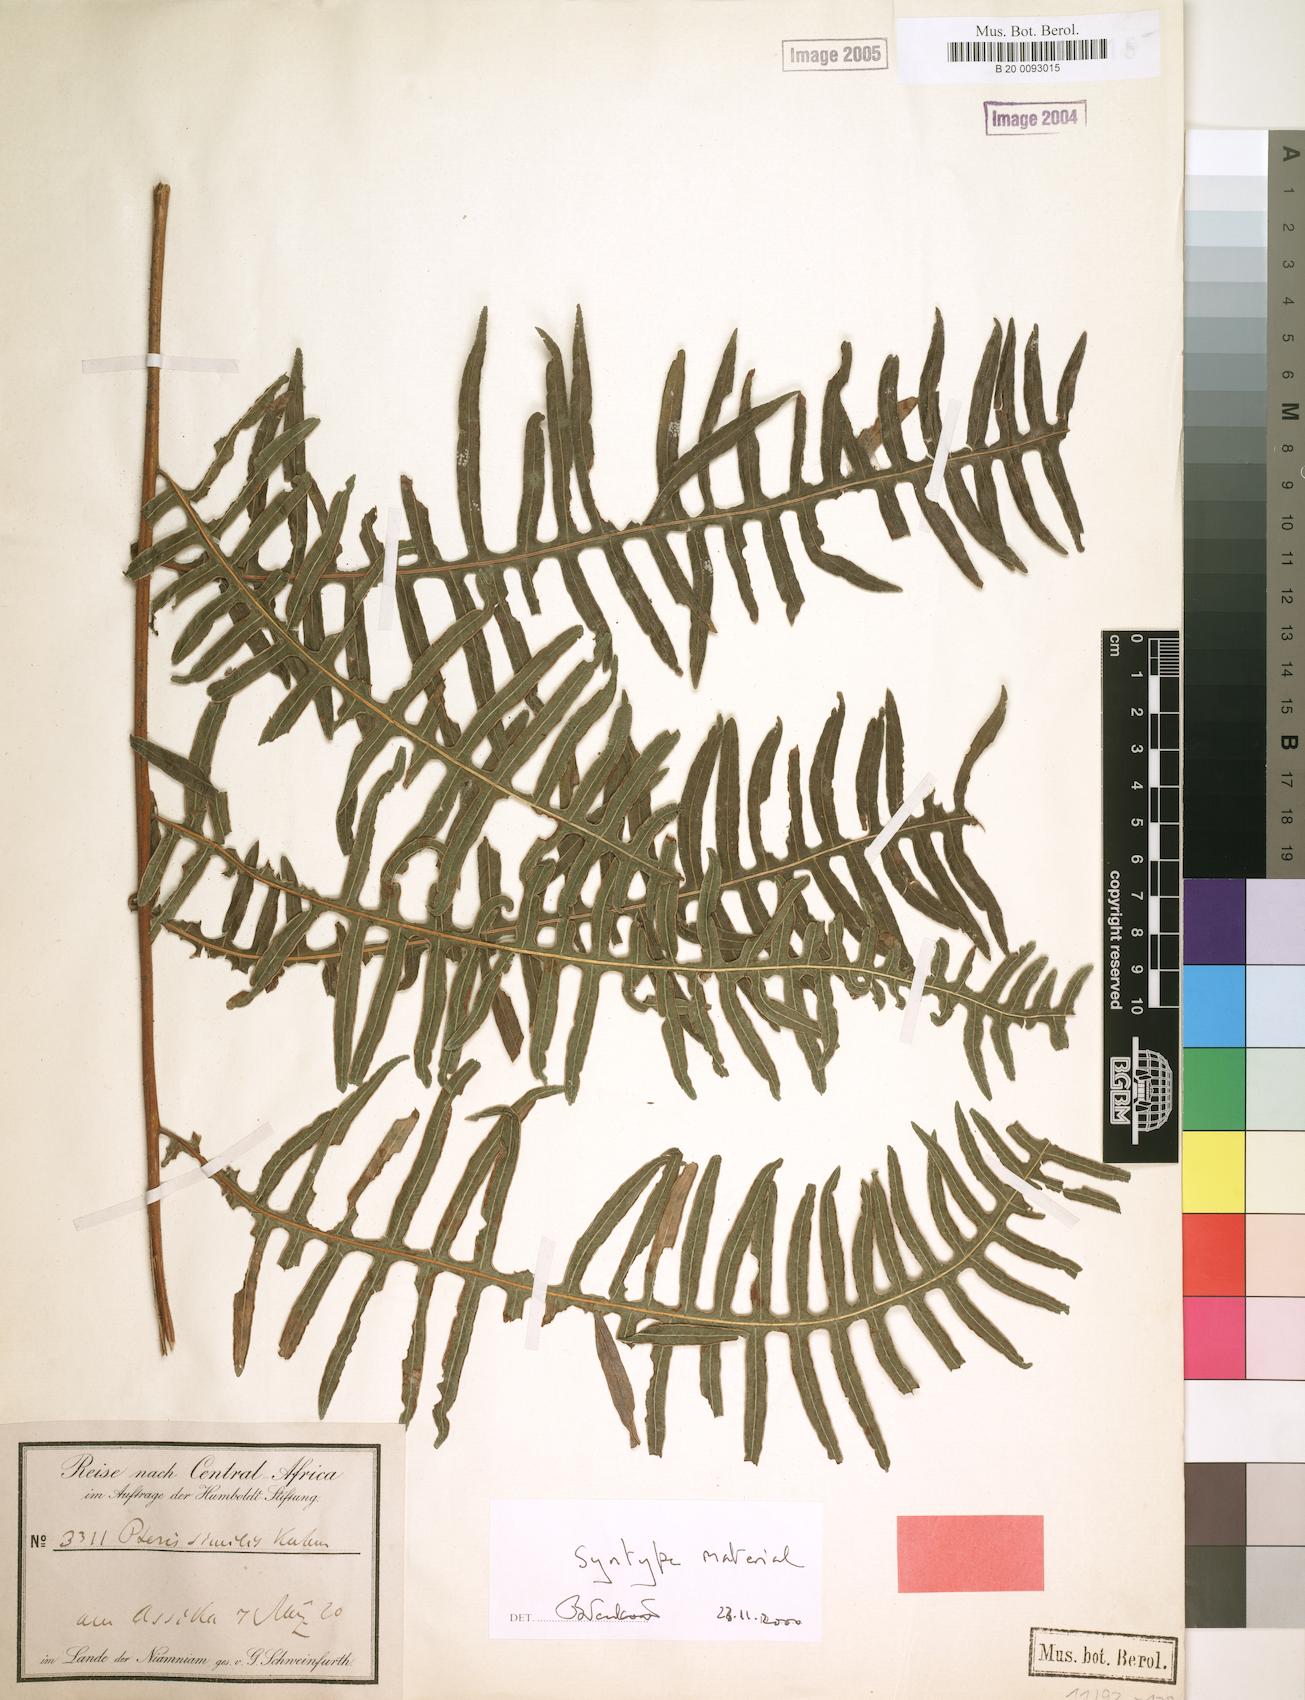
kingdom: Plantae
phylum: Tracheophyta
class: Polypodiopsida
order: Polypodiales
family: Pteridaceae
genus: Pteris
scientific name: Pteris similis
